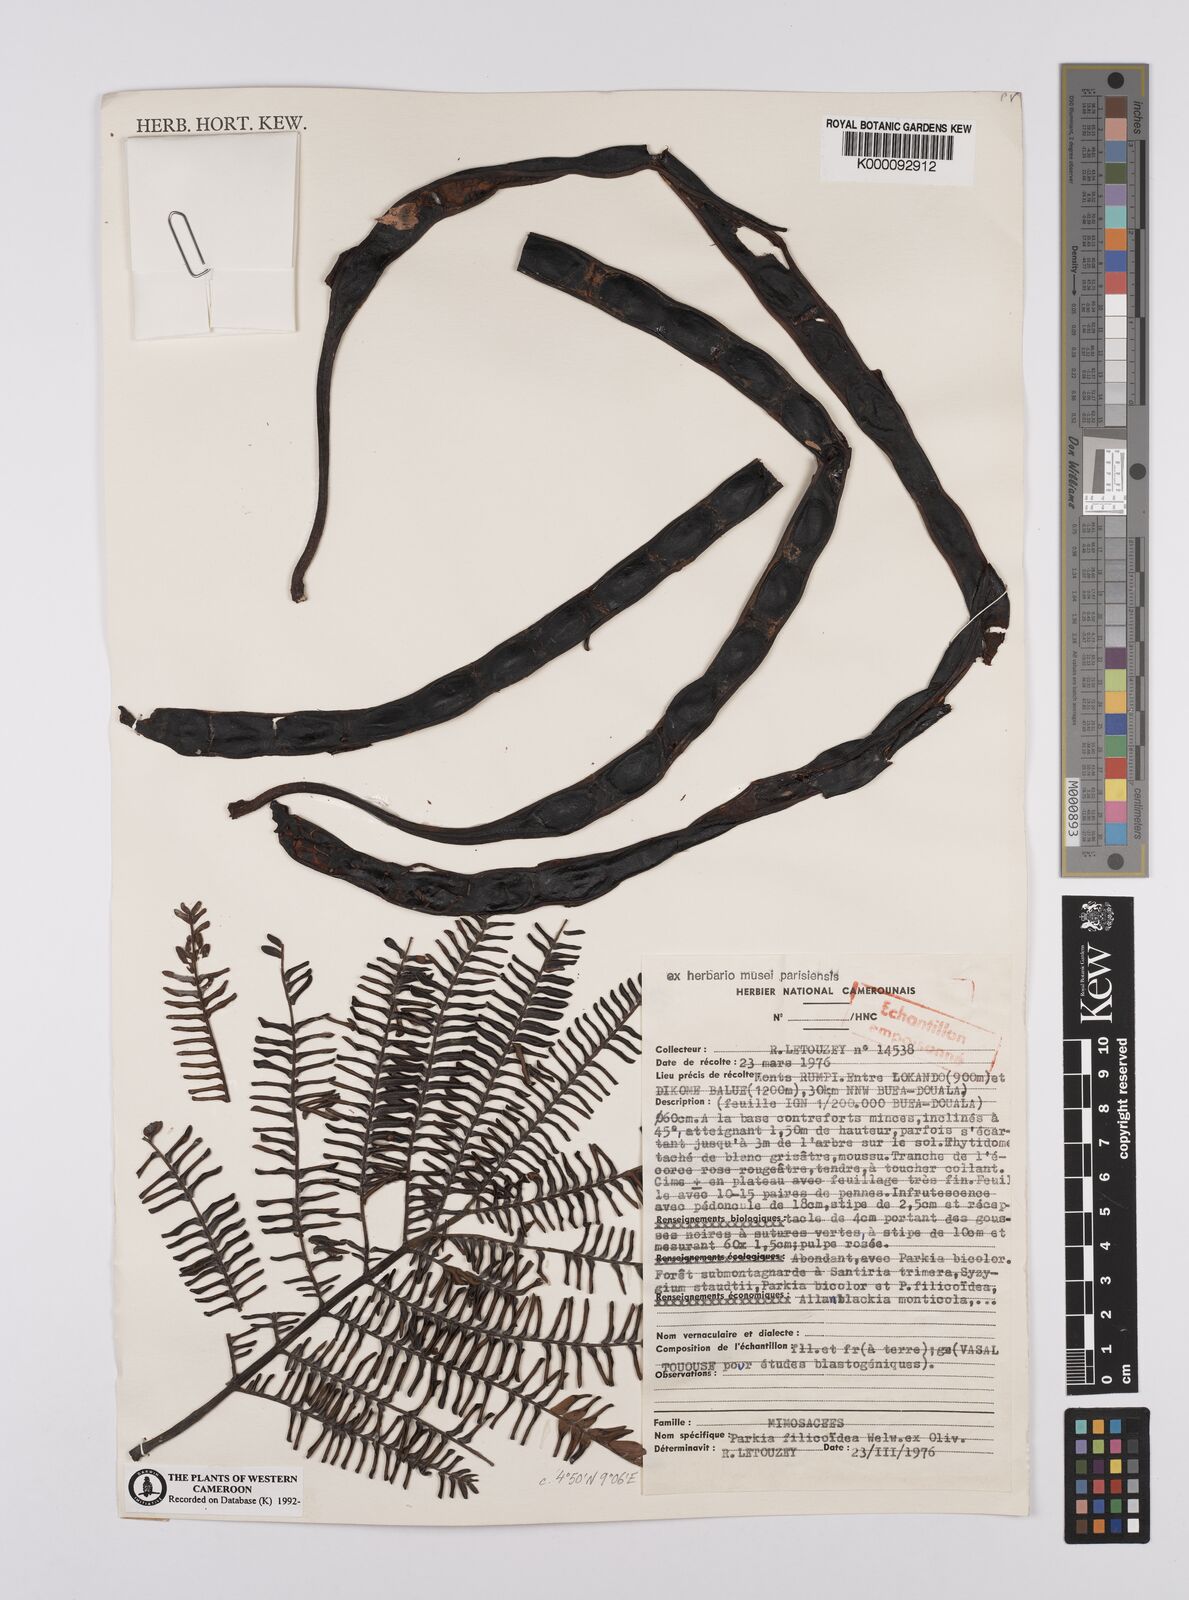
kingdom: Plantae
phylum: Tracheophyta
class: Magnoliopsida
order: Fabales
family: Fabaceae
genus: Parkia
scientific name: Parkia filicoidea
